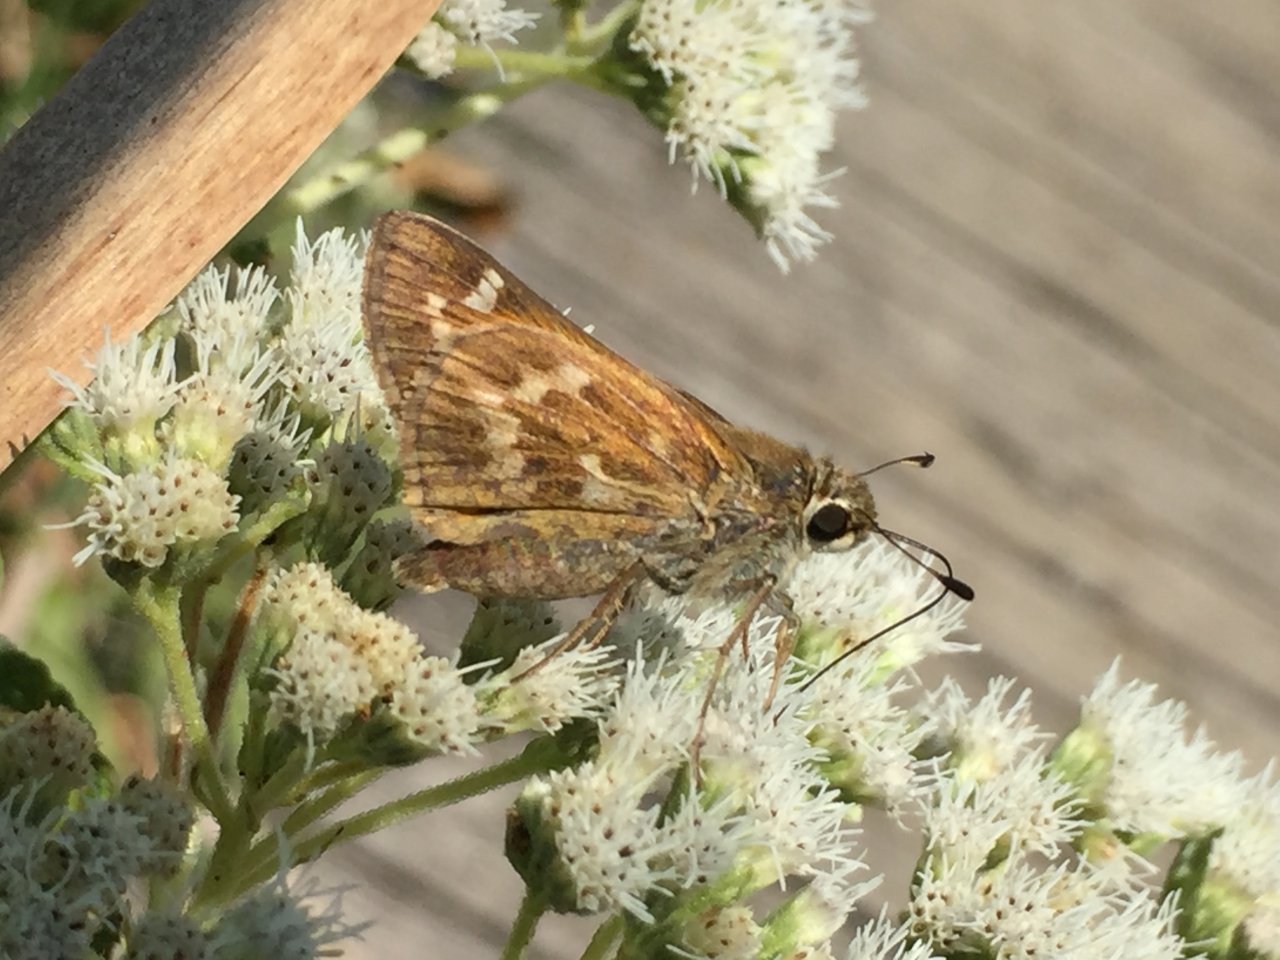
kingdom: Animalia
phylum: Arthropoda
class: Insecta
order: Lepidoptera
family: Hesperiidae
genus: Atalopedes
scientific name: Atalopedes campestris
